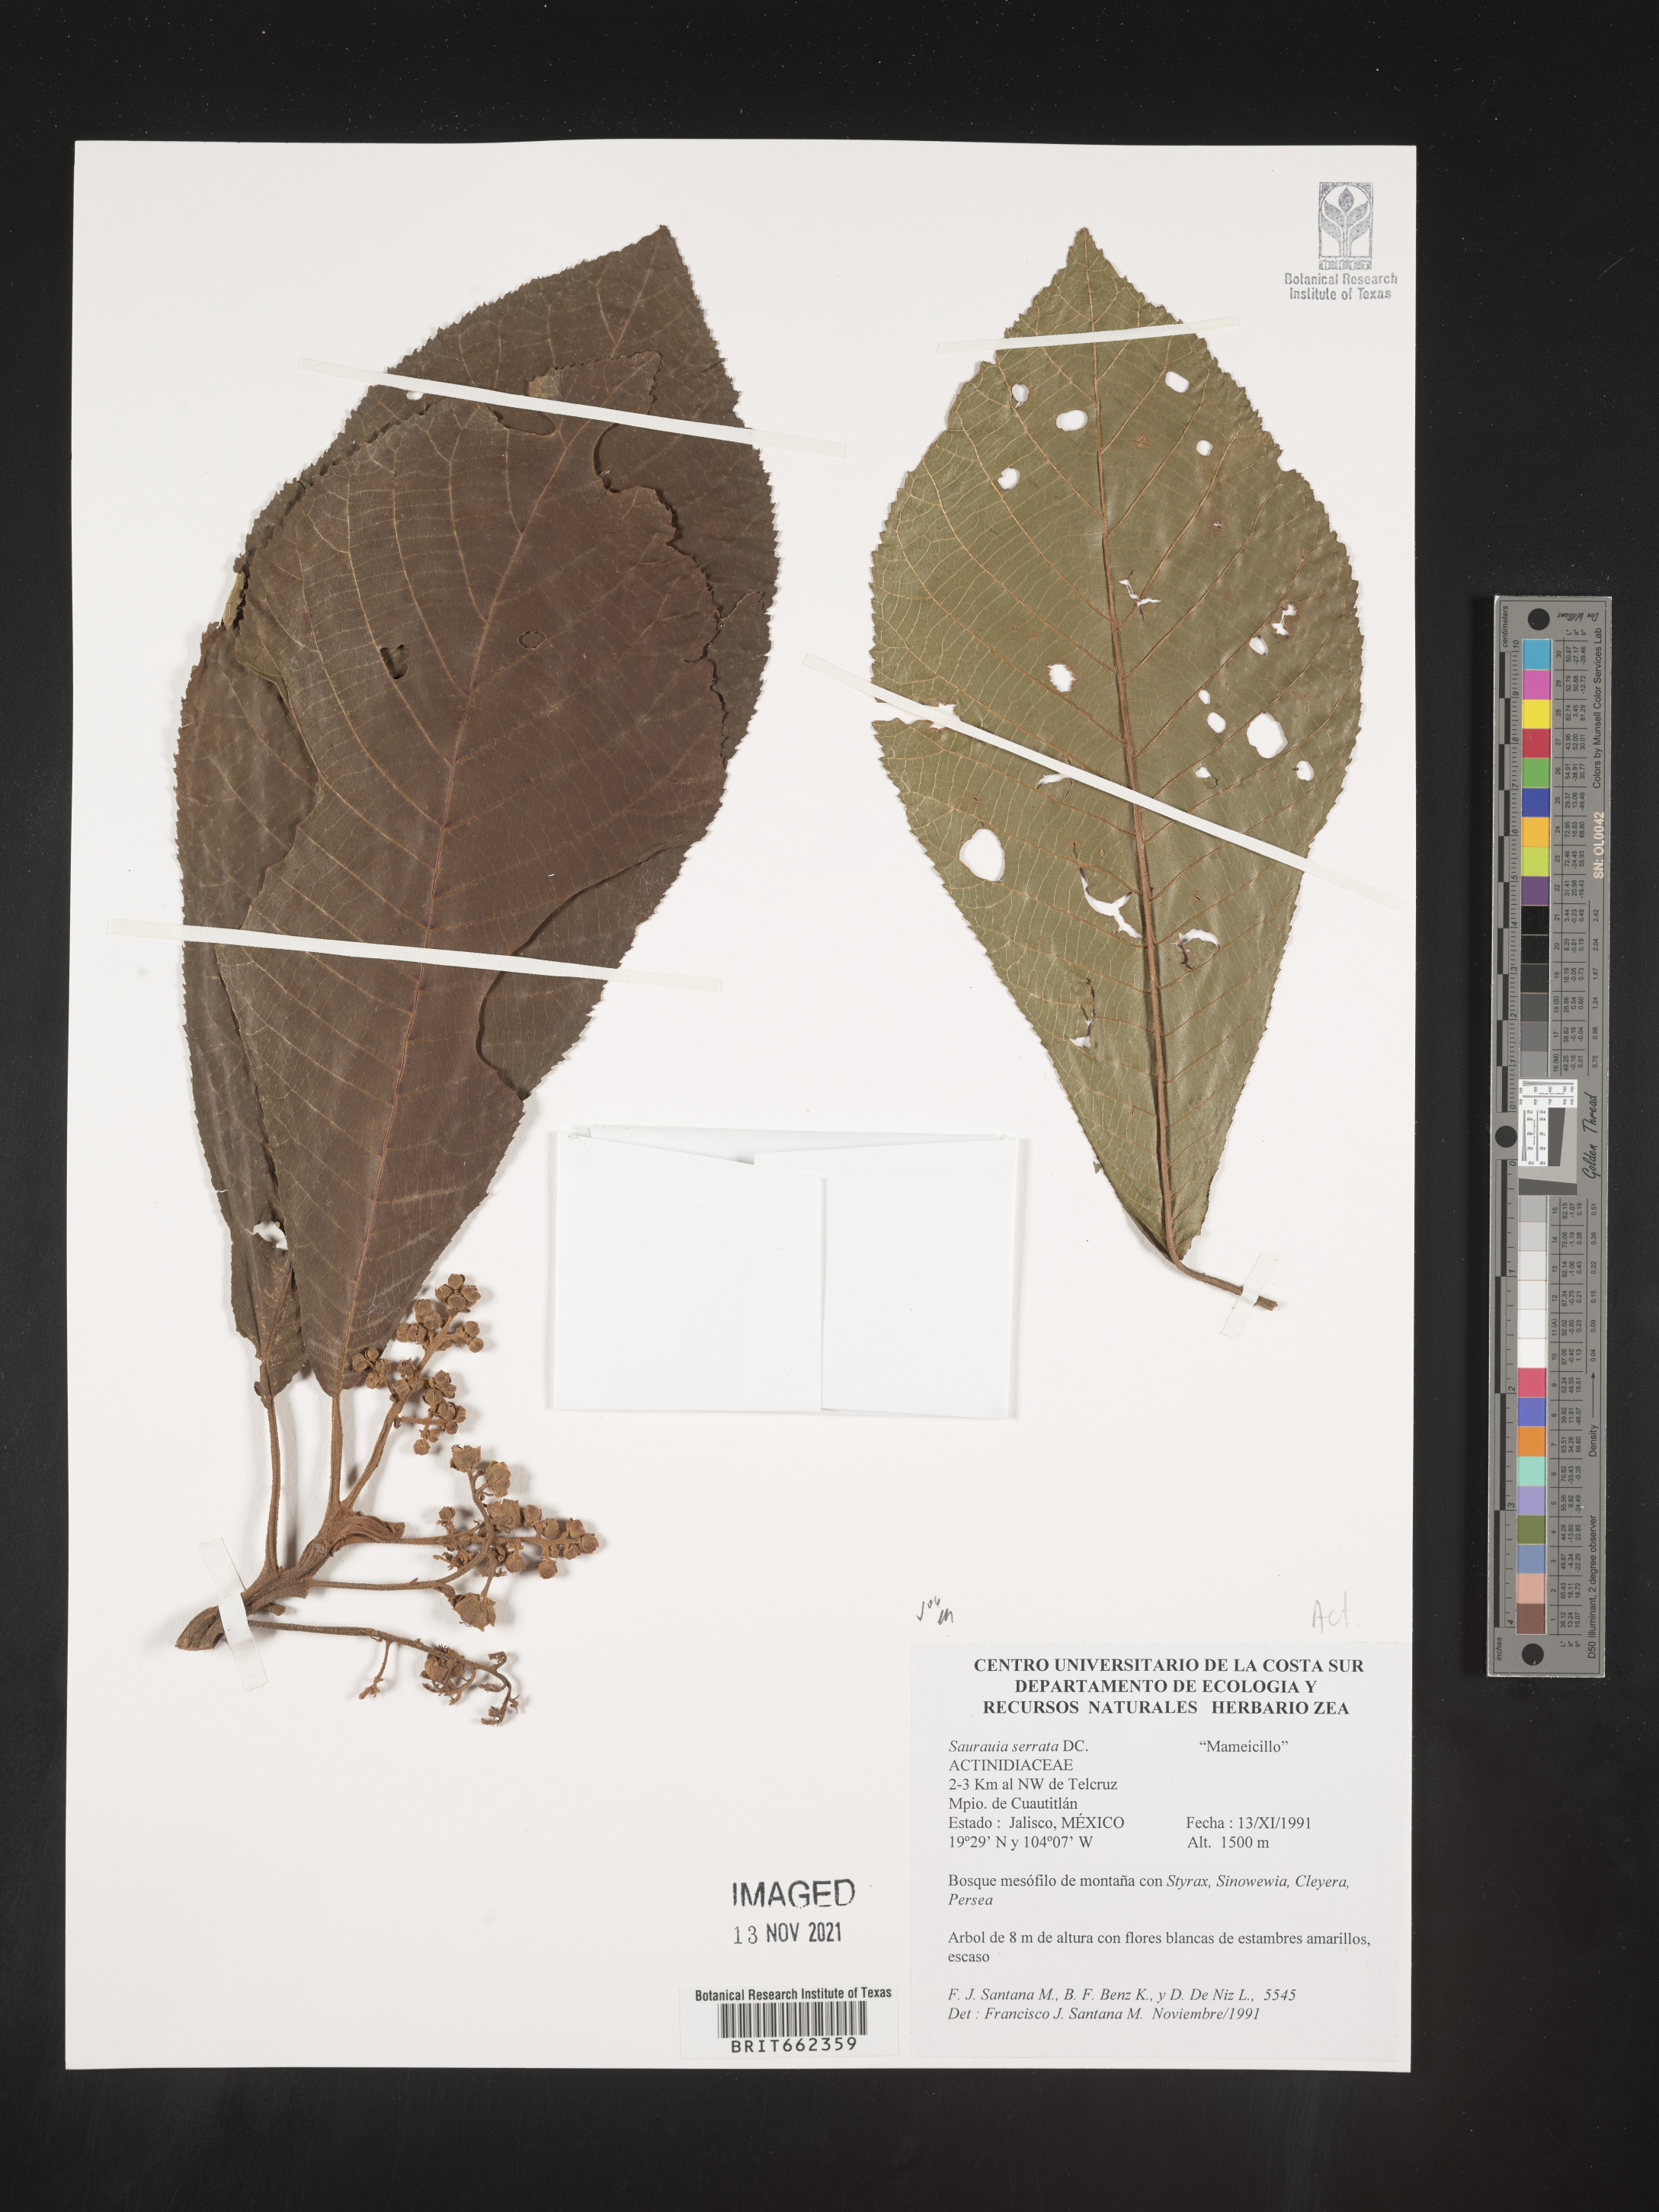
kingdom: Plantae
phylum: Tracheophyta
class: Magnoliopsida
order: Ericales
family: Actinidiaceae
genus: Saurauia
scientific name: Saurauia
